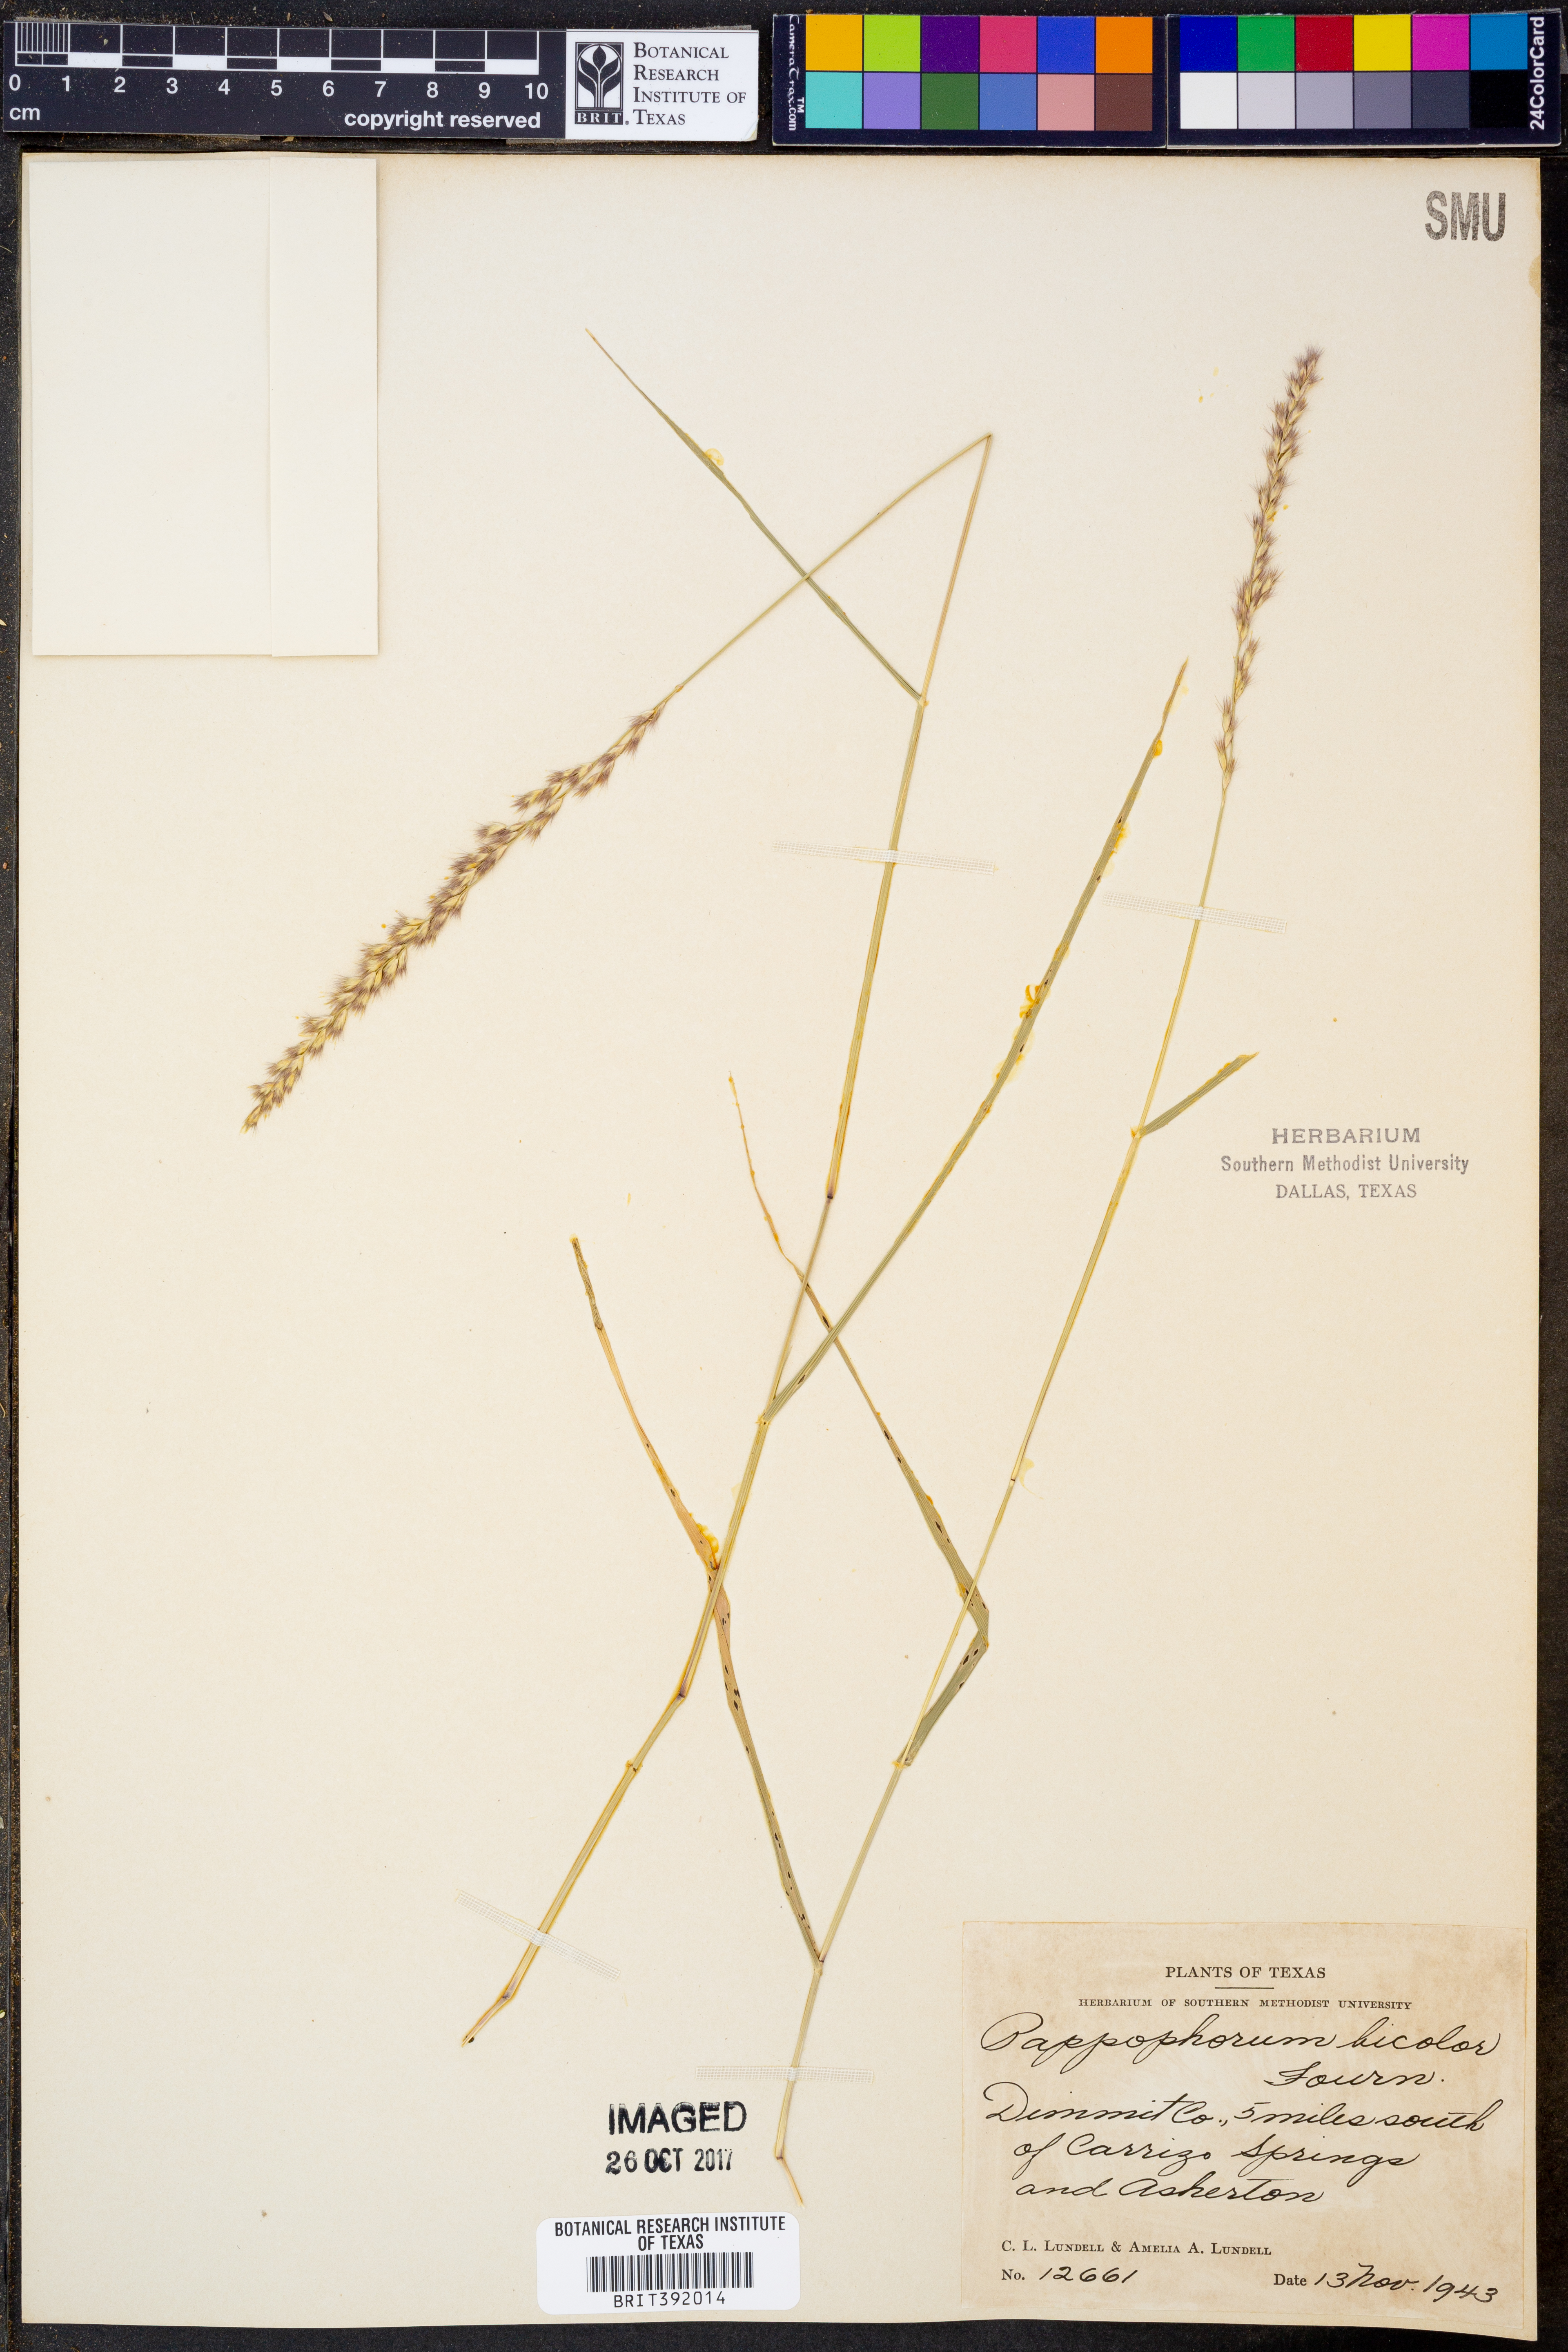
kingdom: Plantae
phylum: Tracheophyta
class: Liliopsida
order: Poales
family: Poaceae
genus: Pappophorum
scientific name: Pappophorum bicolor
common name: Pink pappus grass
